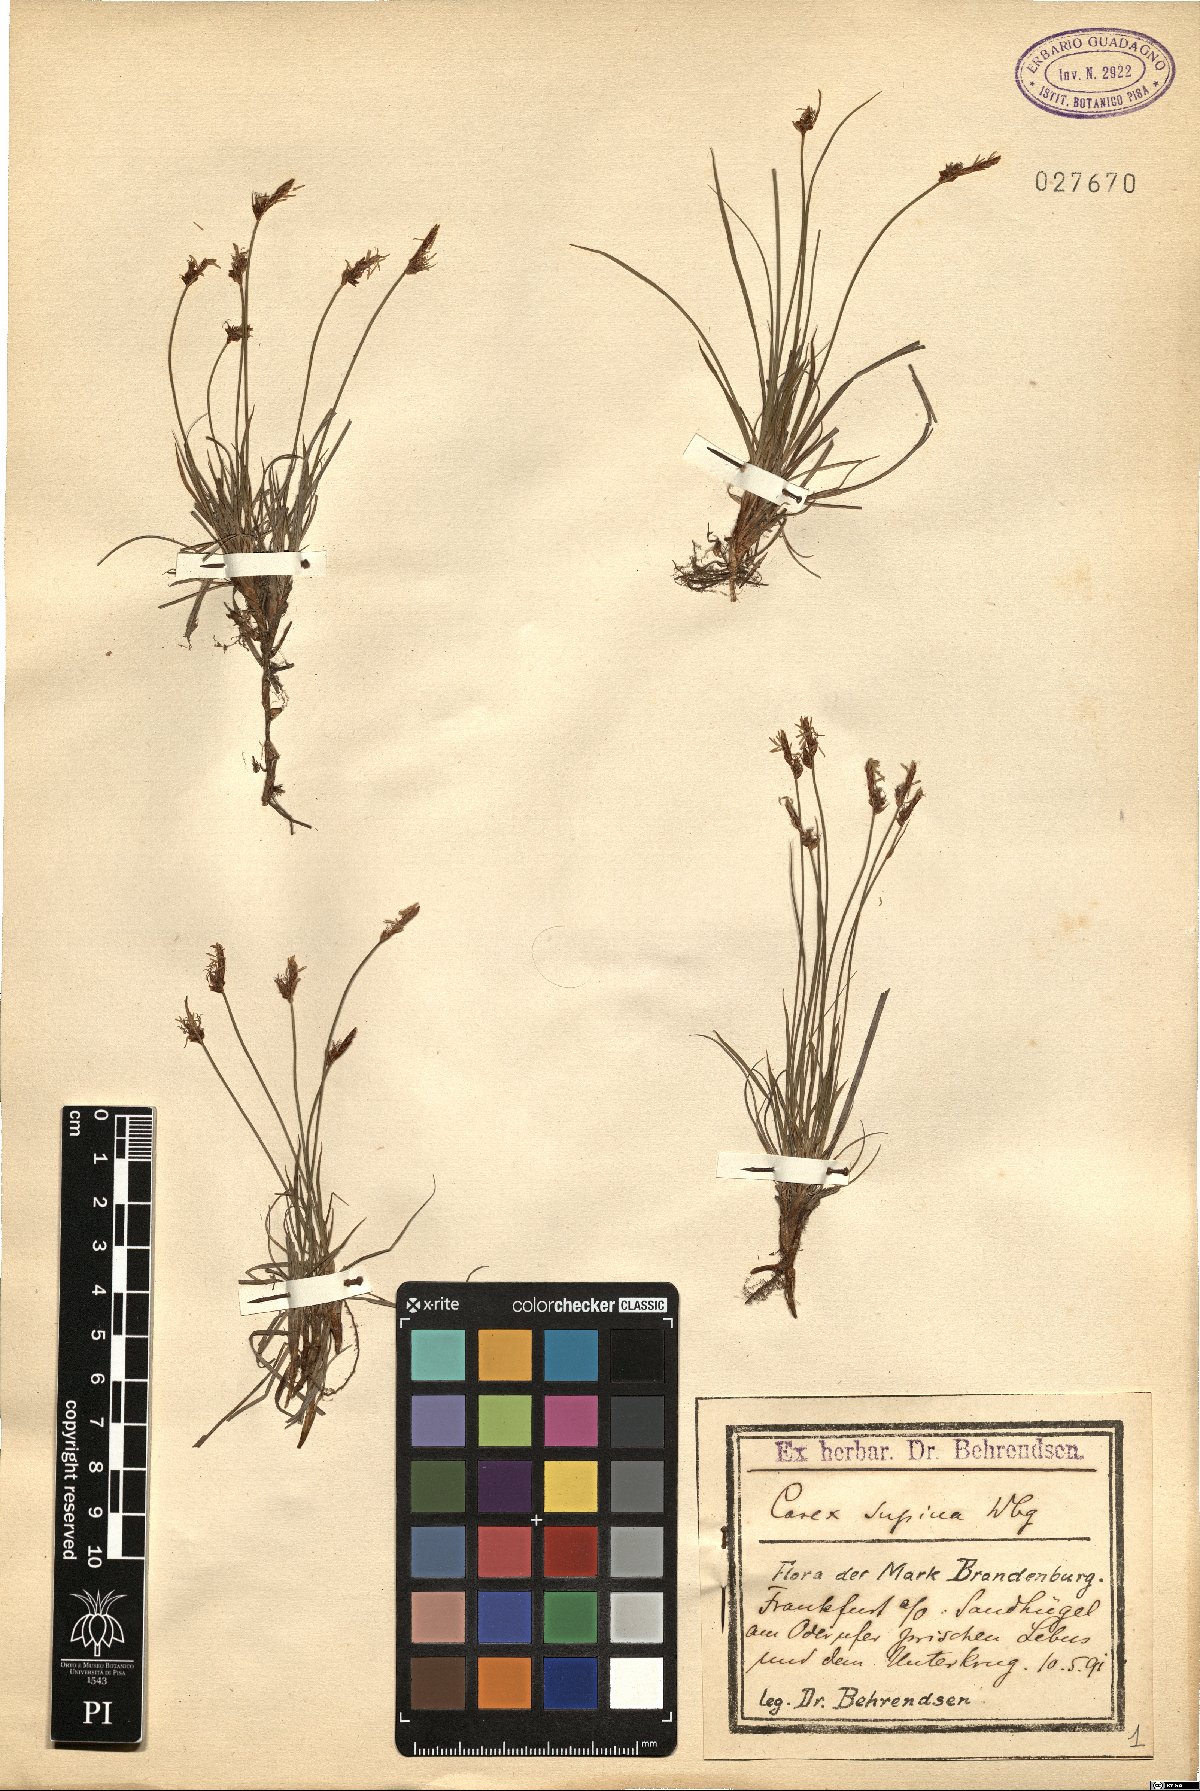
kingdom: Plantae
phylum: Tracheophyta
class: Liliopsida
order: Poales
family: Cyperaceae
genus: Carex
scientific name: Carex supina
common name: Lying-back sedge
